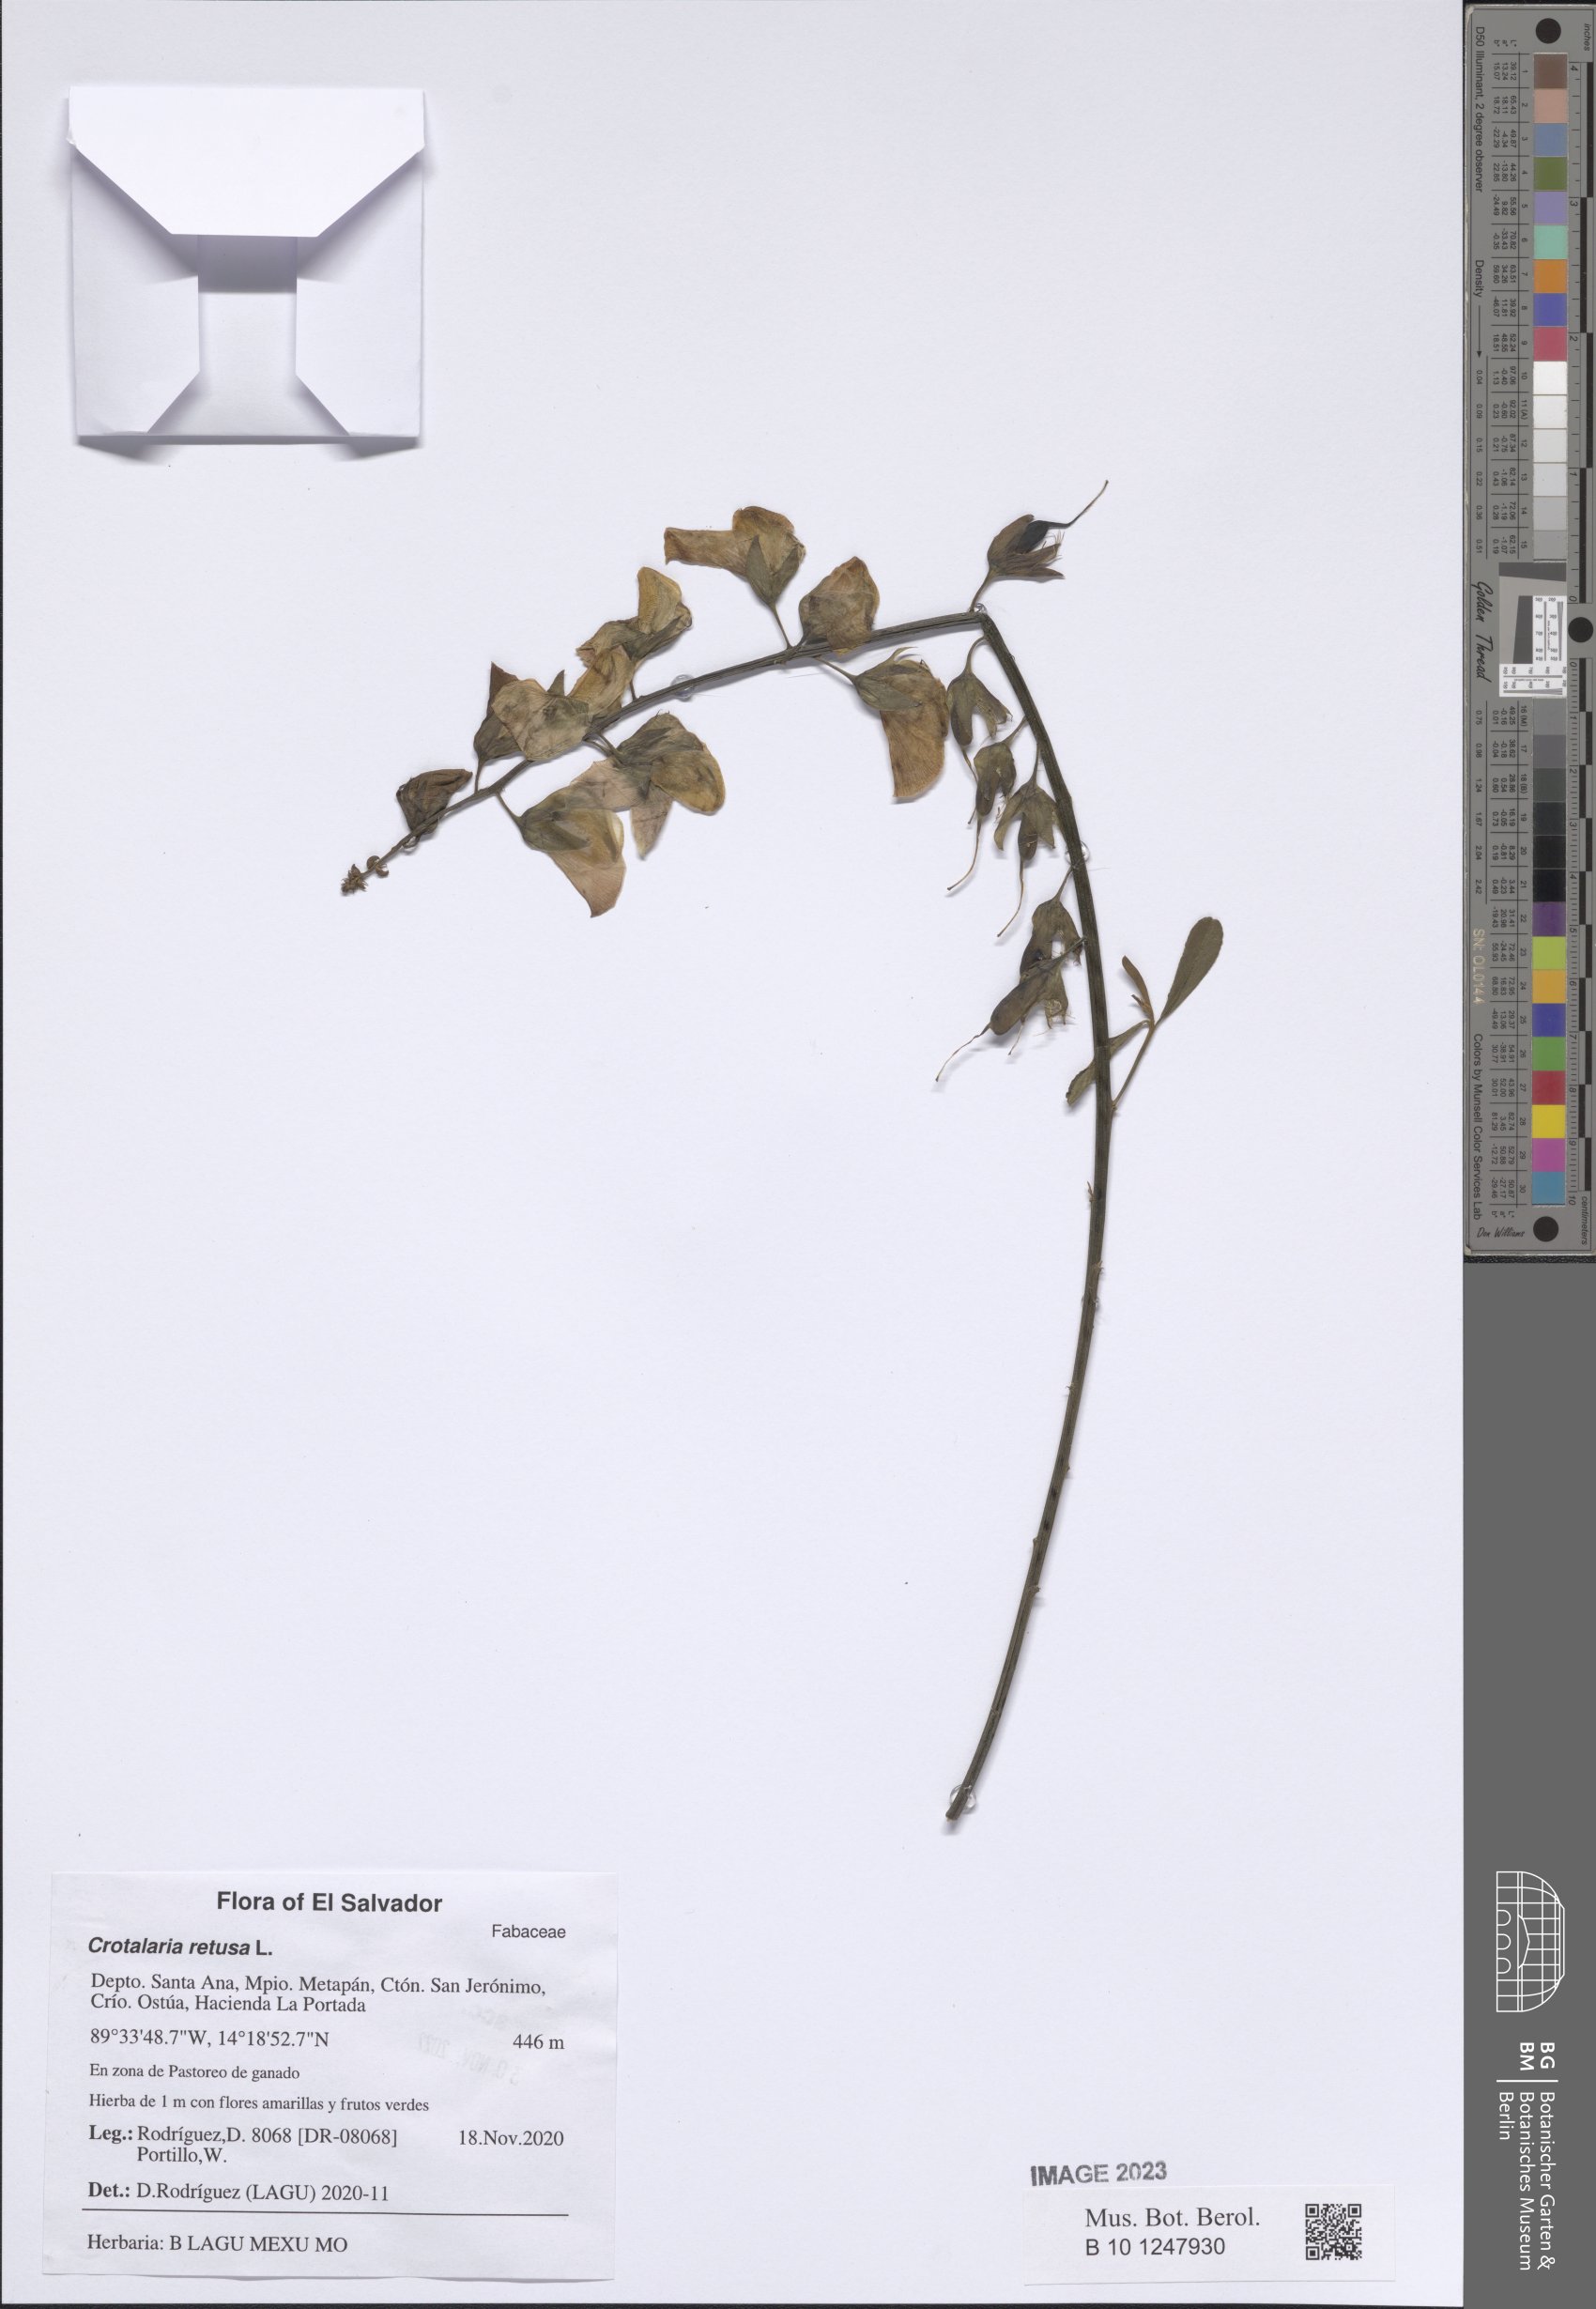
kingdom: Plantae
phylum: Tracheophyta
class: Magnoliopsida
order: Fabales
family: Fabaceae
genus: Crotalaria
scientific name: Crotalaria retusa
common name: Rattleweed
